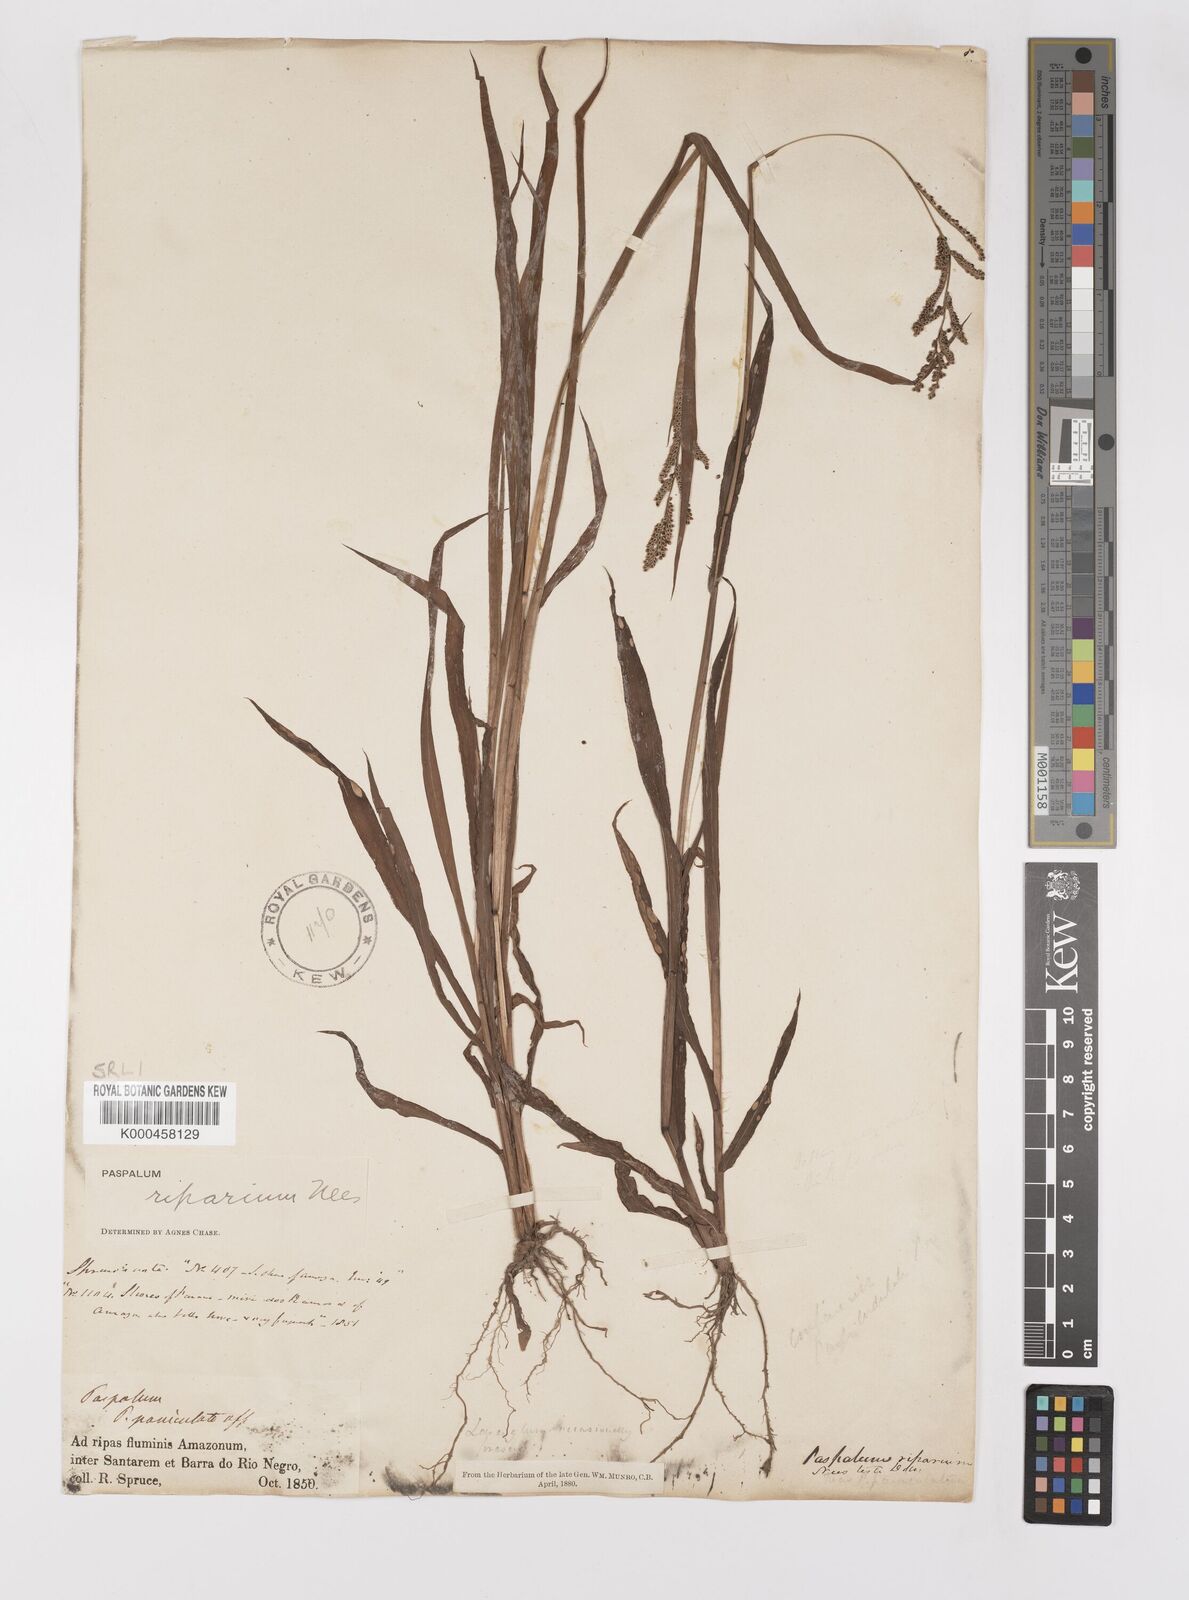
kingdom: Plantae
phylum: Tracheophyta
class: Liliopsida
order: Poales
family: Poaceae
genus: Paspalum
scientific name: Paspalum
